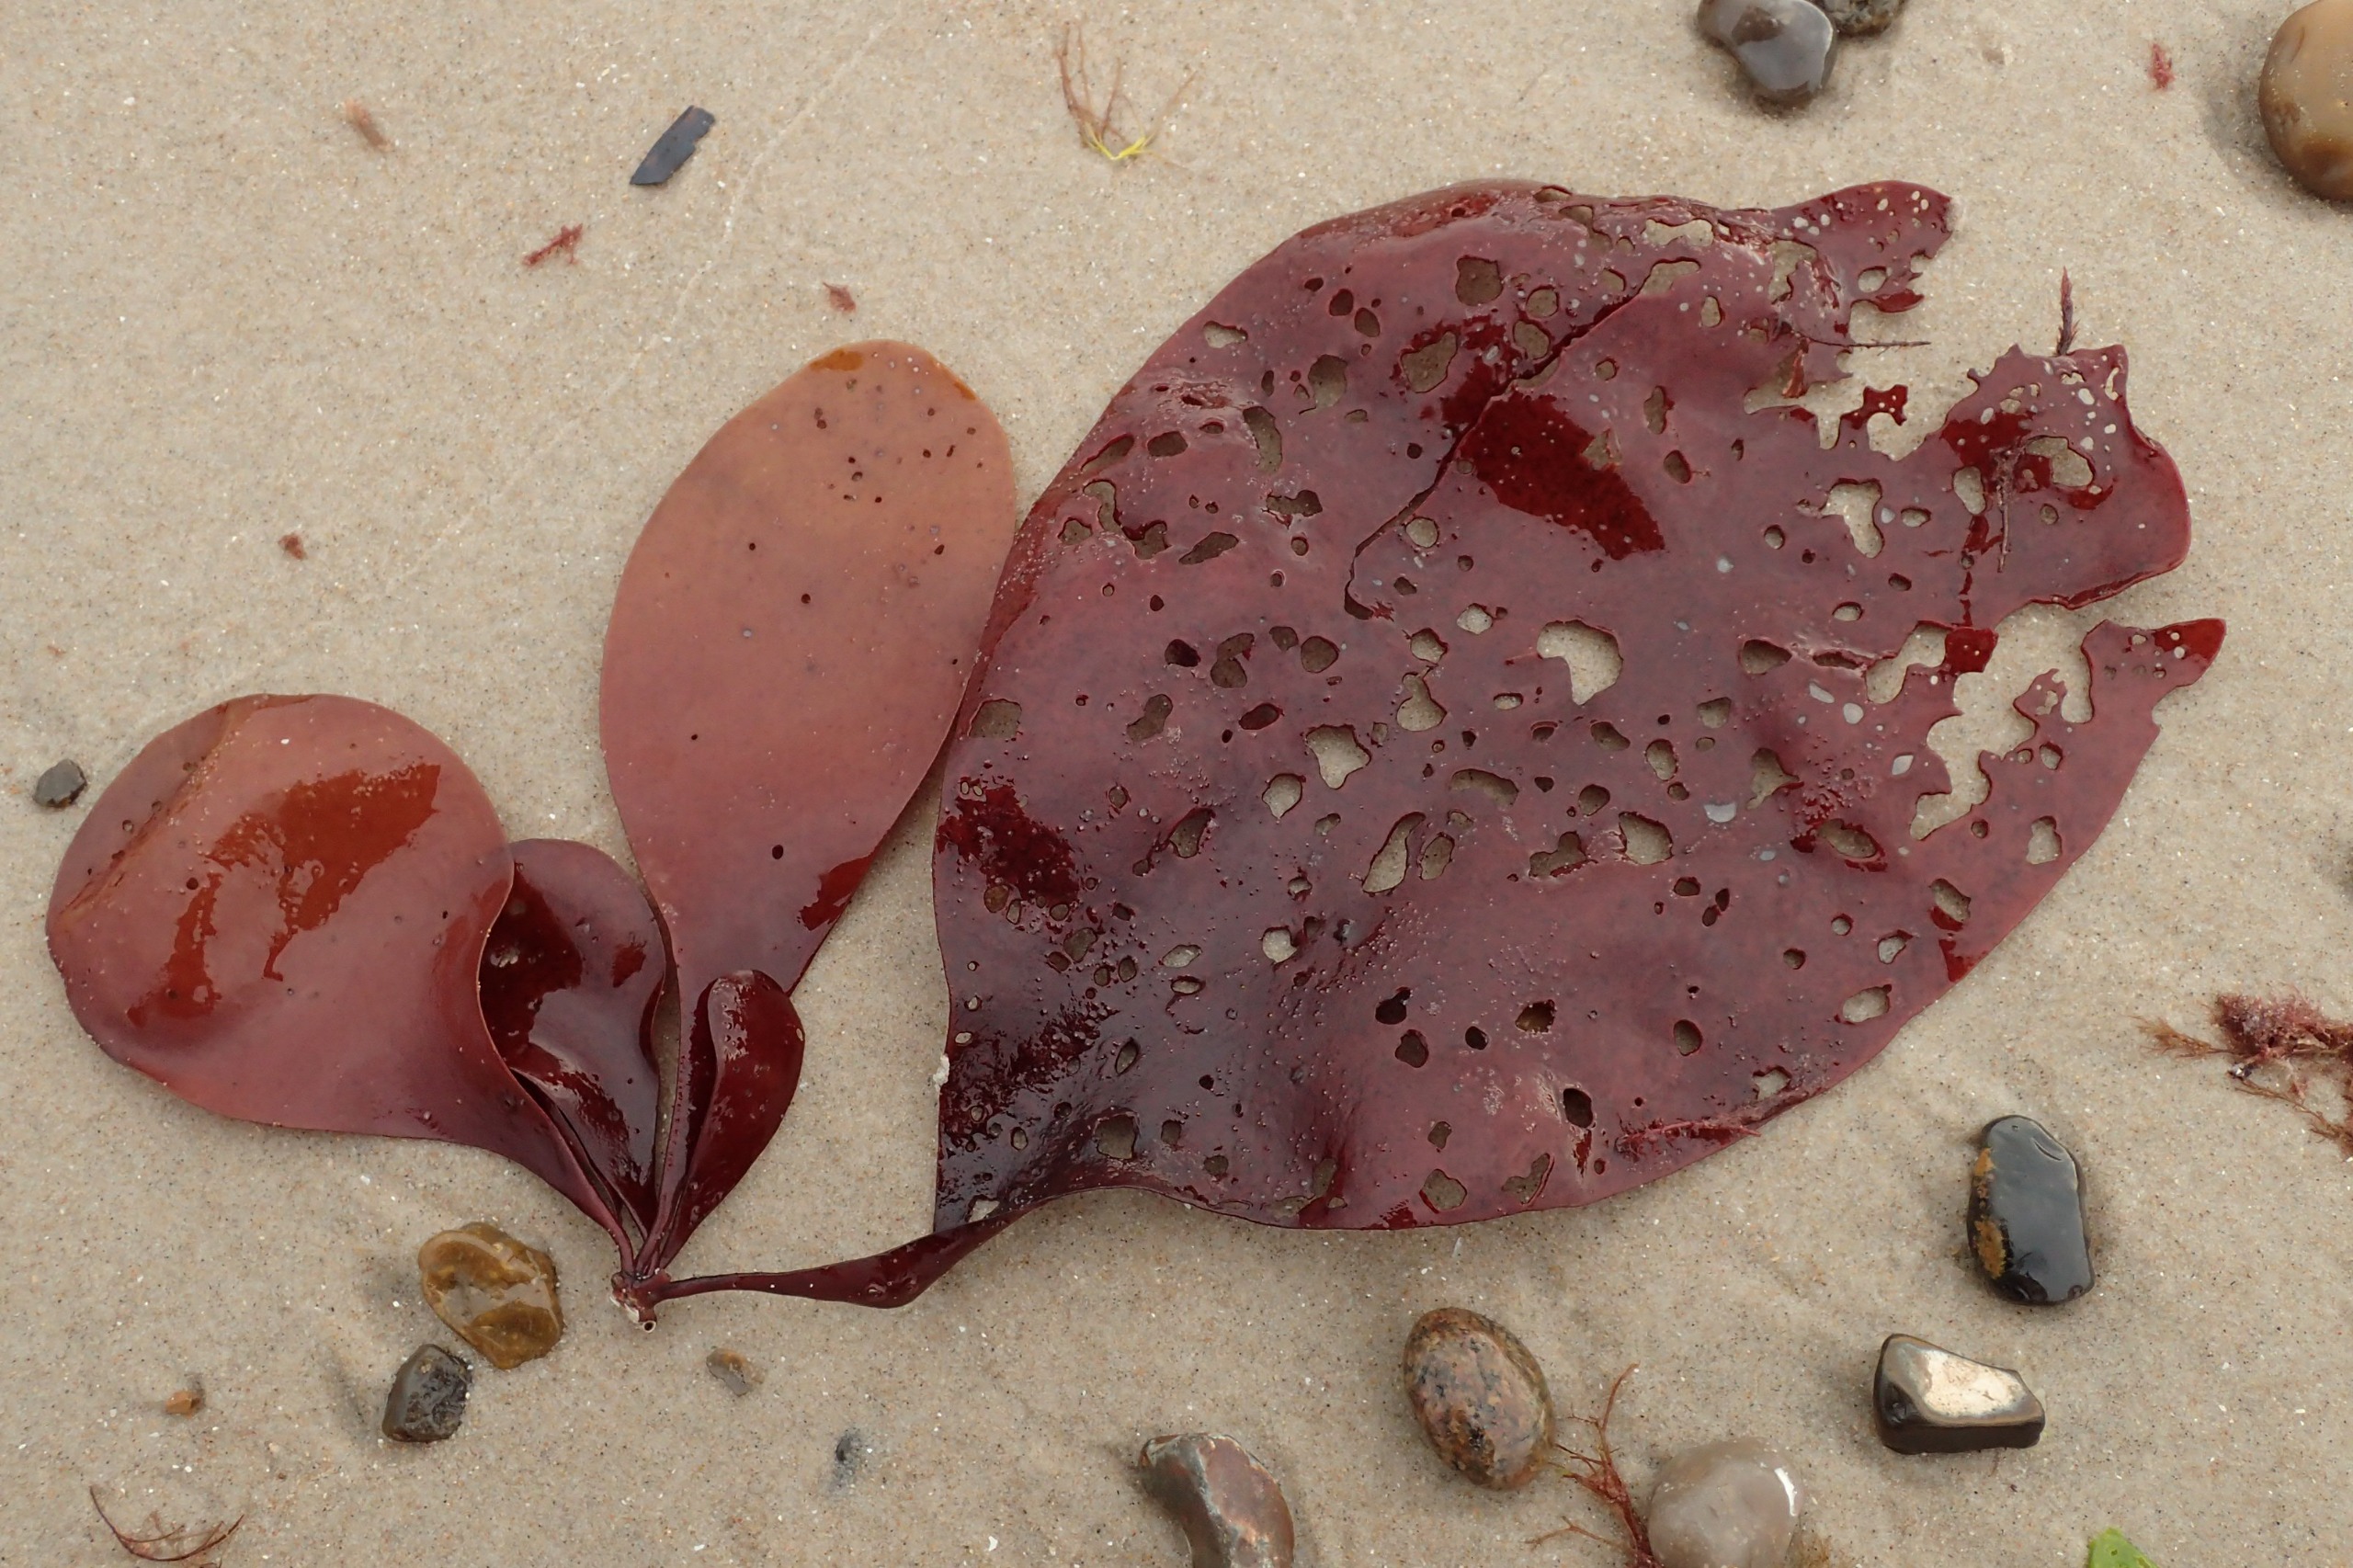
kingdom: Plantae
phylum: Rhodophyta
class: Florideophyceae
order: Gigartinales
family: Dumontiaceae
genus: Dilsea
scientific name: Dilsea carnosa
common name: Kødblad
